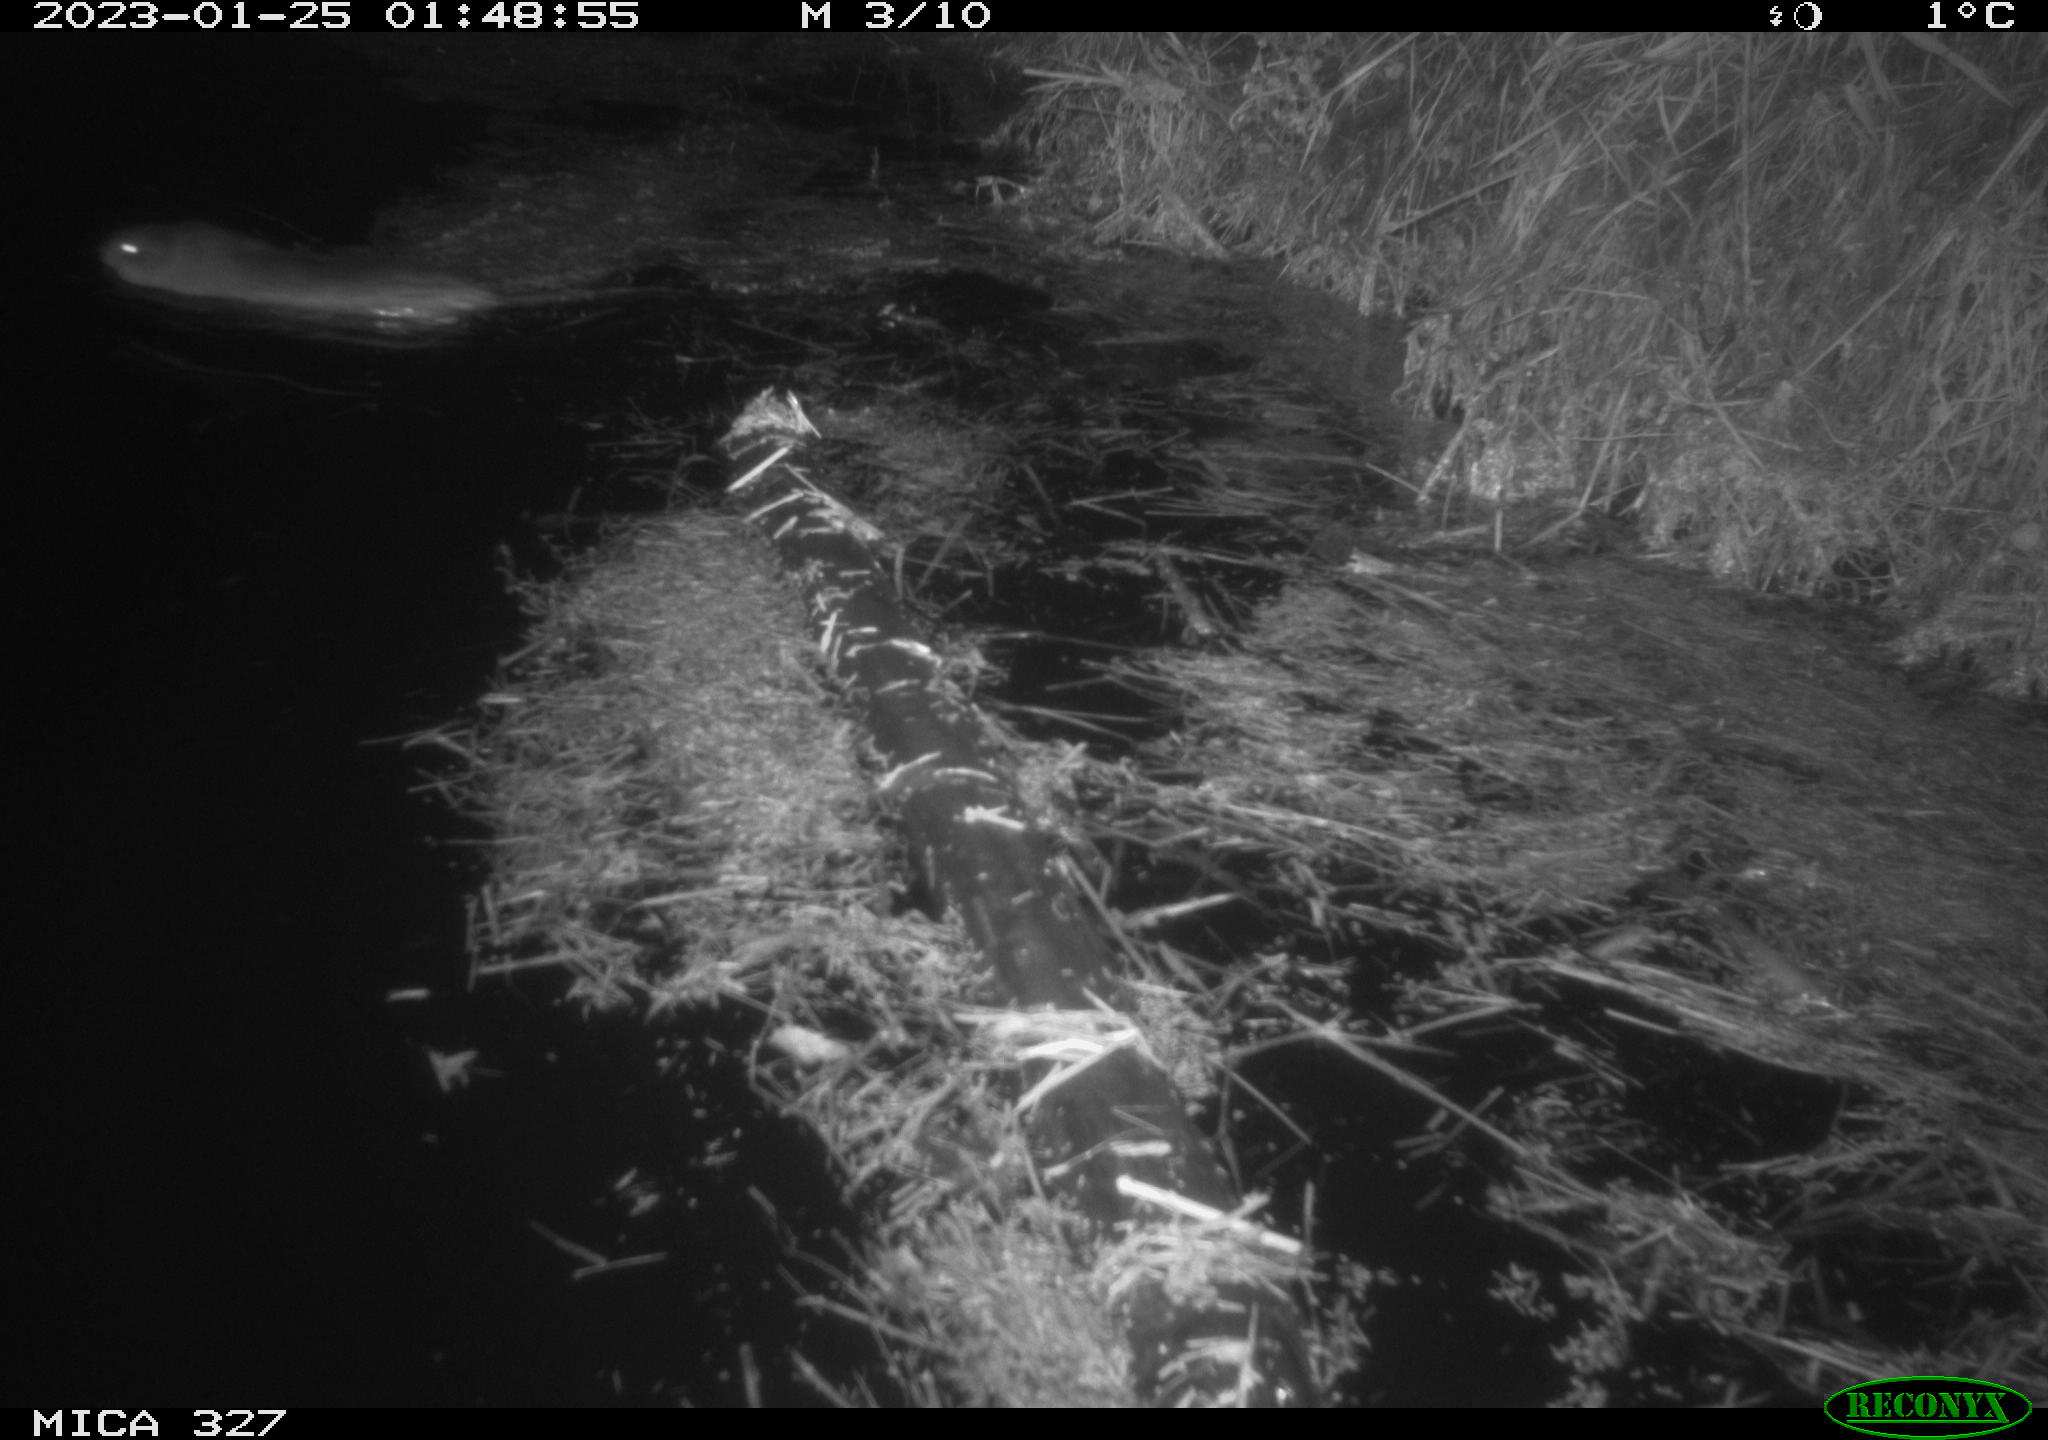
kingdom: Animalia
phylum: Chordata
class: Mammalia
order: Rodentia
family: Cricetidae
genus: Ondatra
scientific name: Ondatra zibethicus
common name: Muskrat
